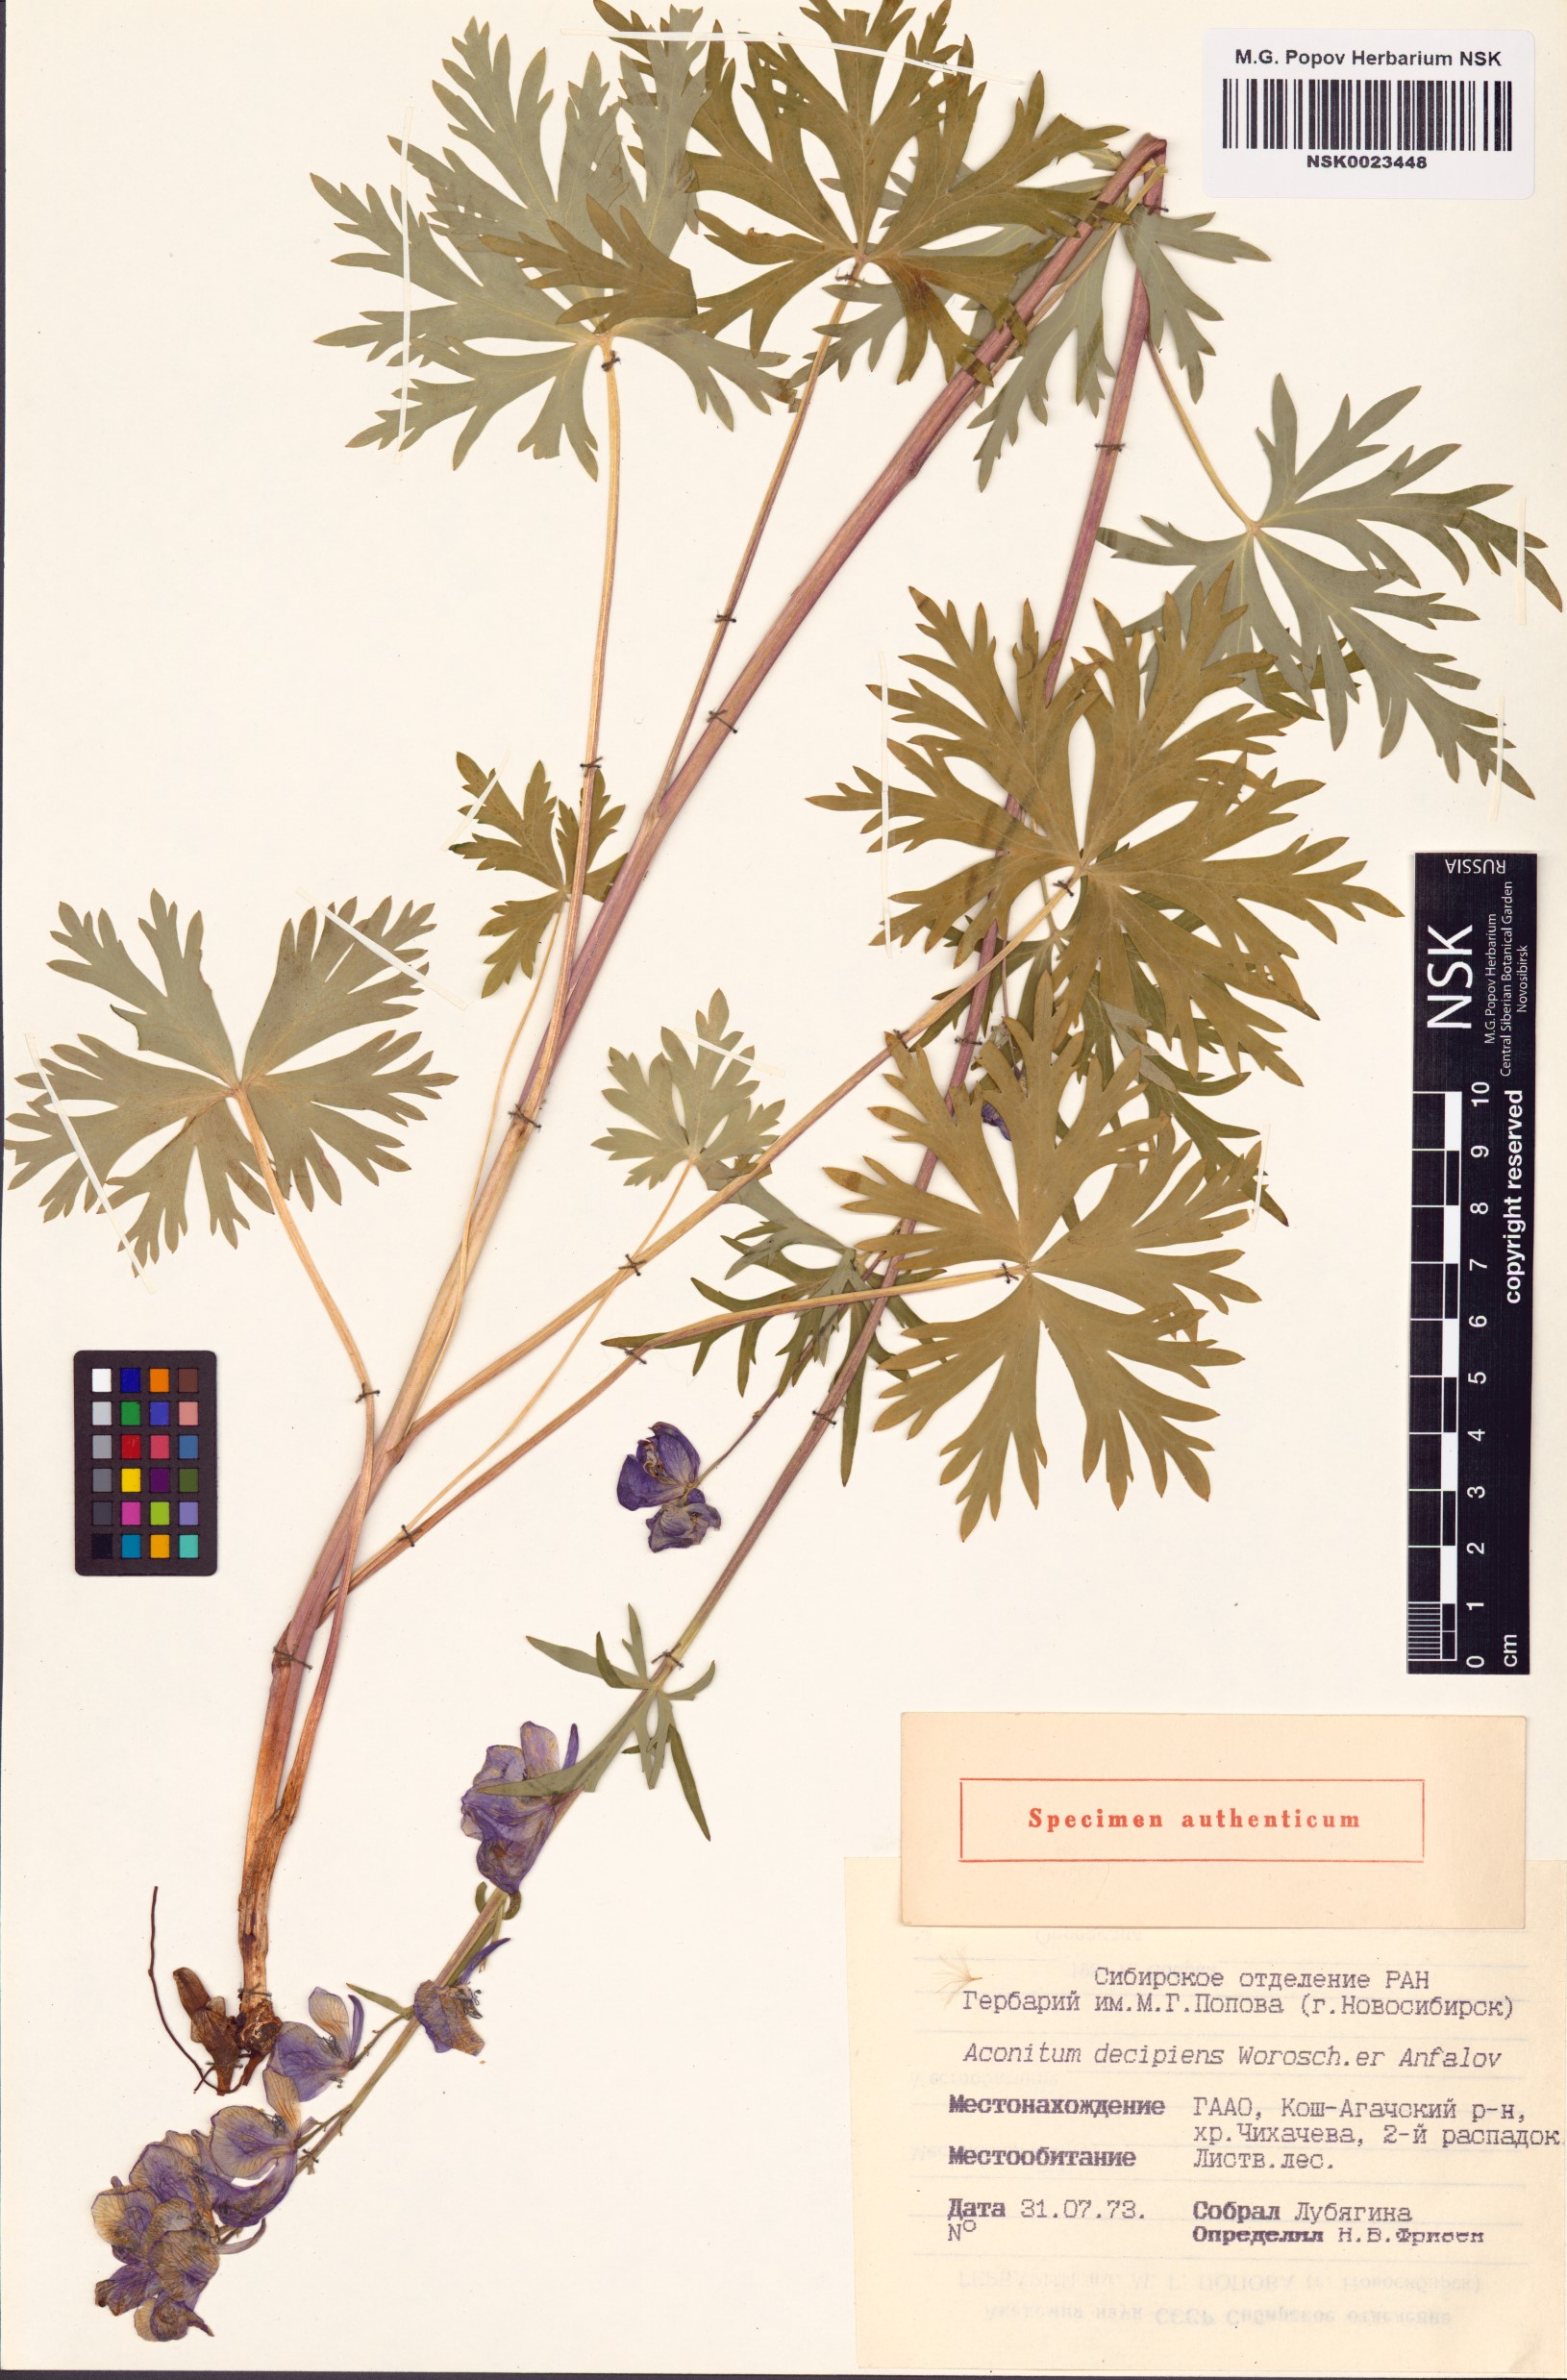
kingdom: Plantae
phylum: Tracheophyta
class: Magnoliopsida
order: Ranunculales
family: Ranunculaceae
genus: Aconitum
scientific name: Aconitum decipiens
